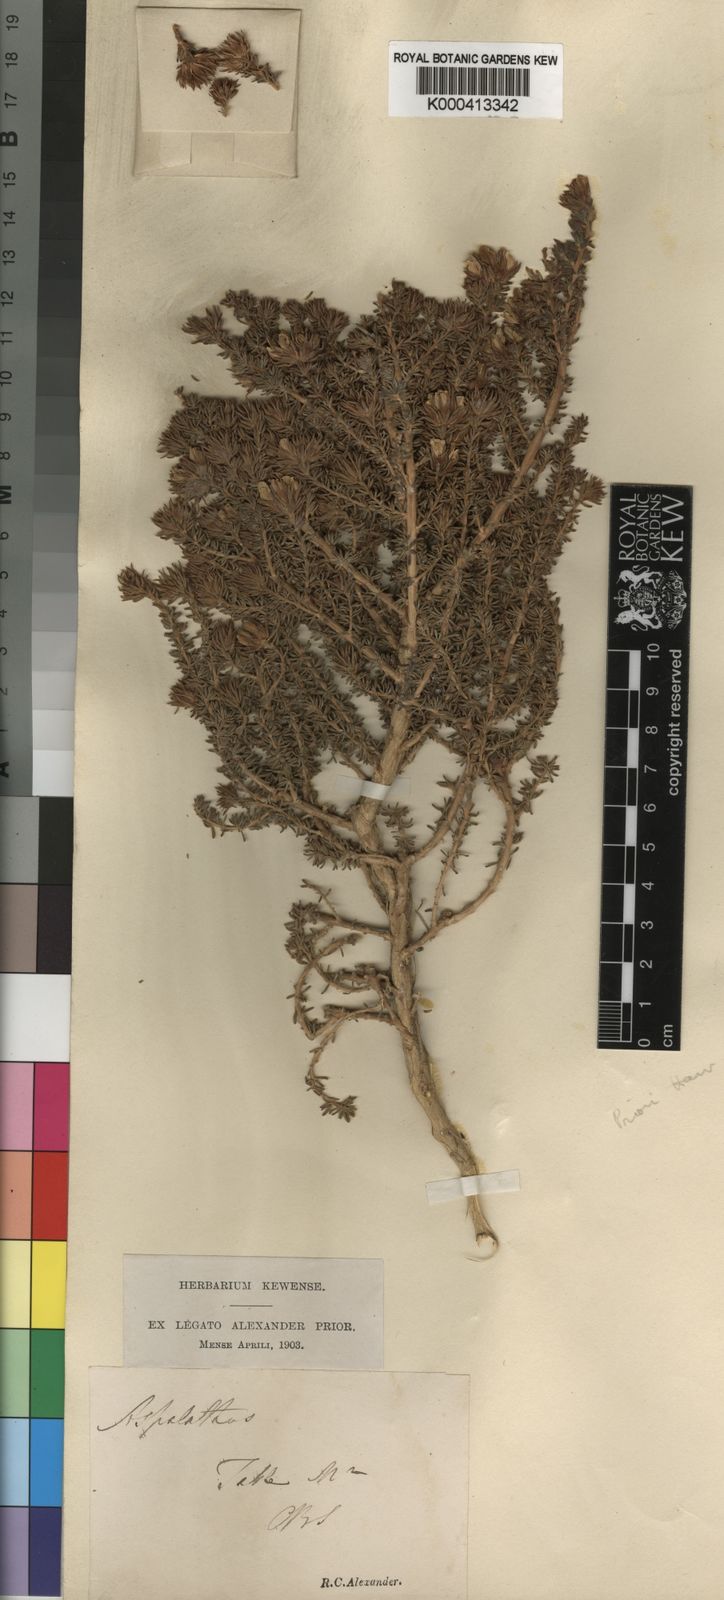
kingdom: Plantae
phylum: Tracheophyta
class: Magnoliopsida
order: Fabales
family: Fabaceae
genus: Aspalathus
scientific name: Aspalathus forbesii
